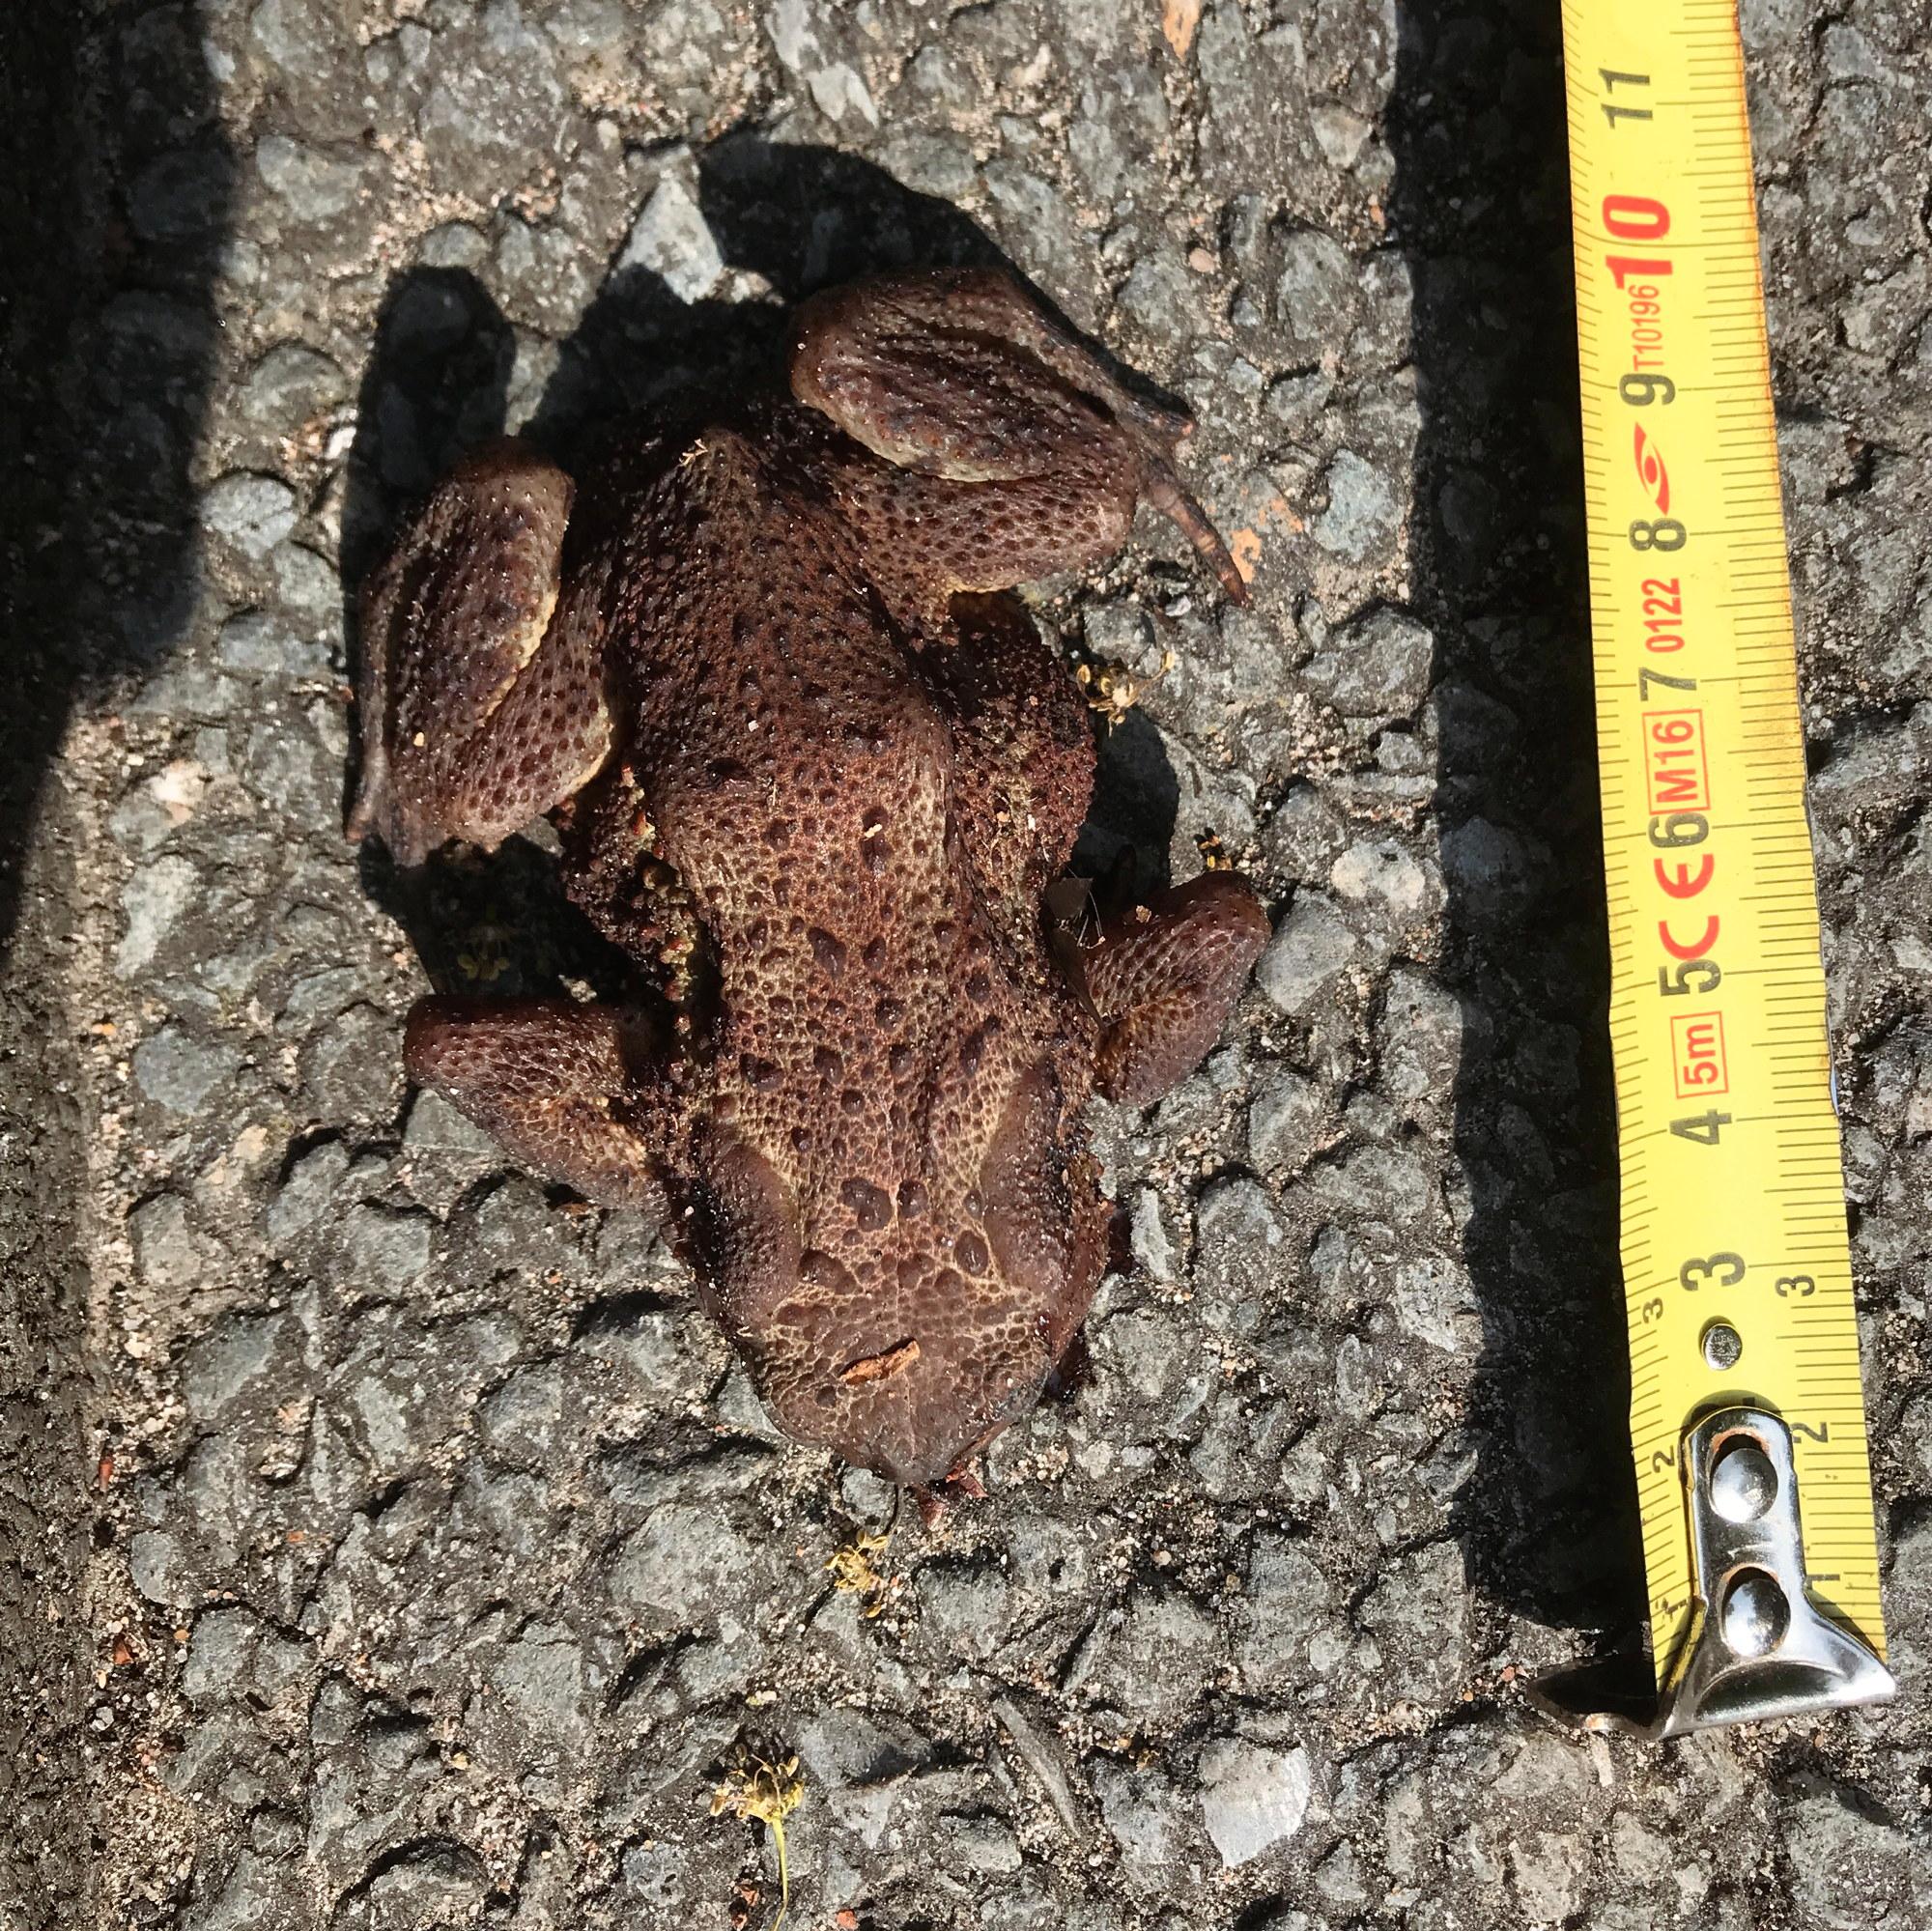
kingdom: Animalia
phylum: Chordata
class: Amphibia
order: Anura
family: Bufonidae
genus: Bufo
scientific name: Bufo bufo
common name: Common toad
